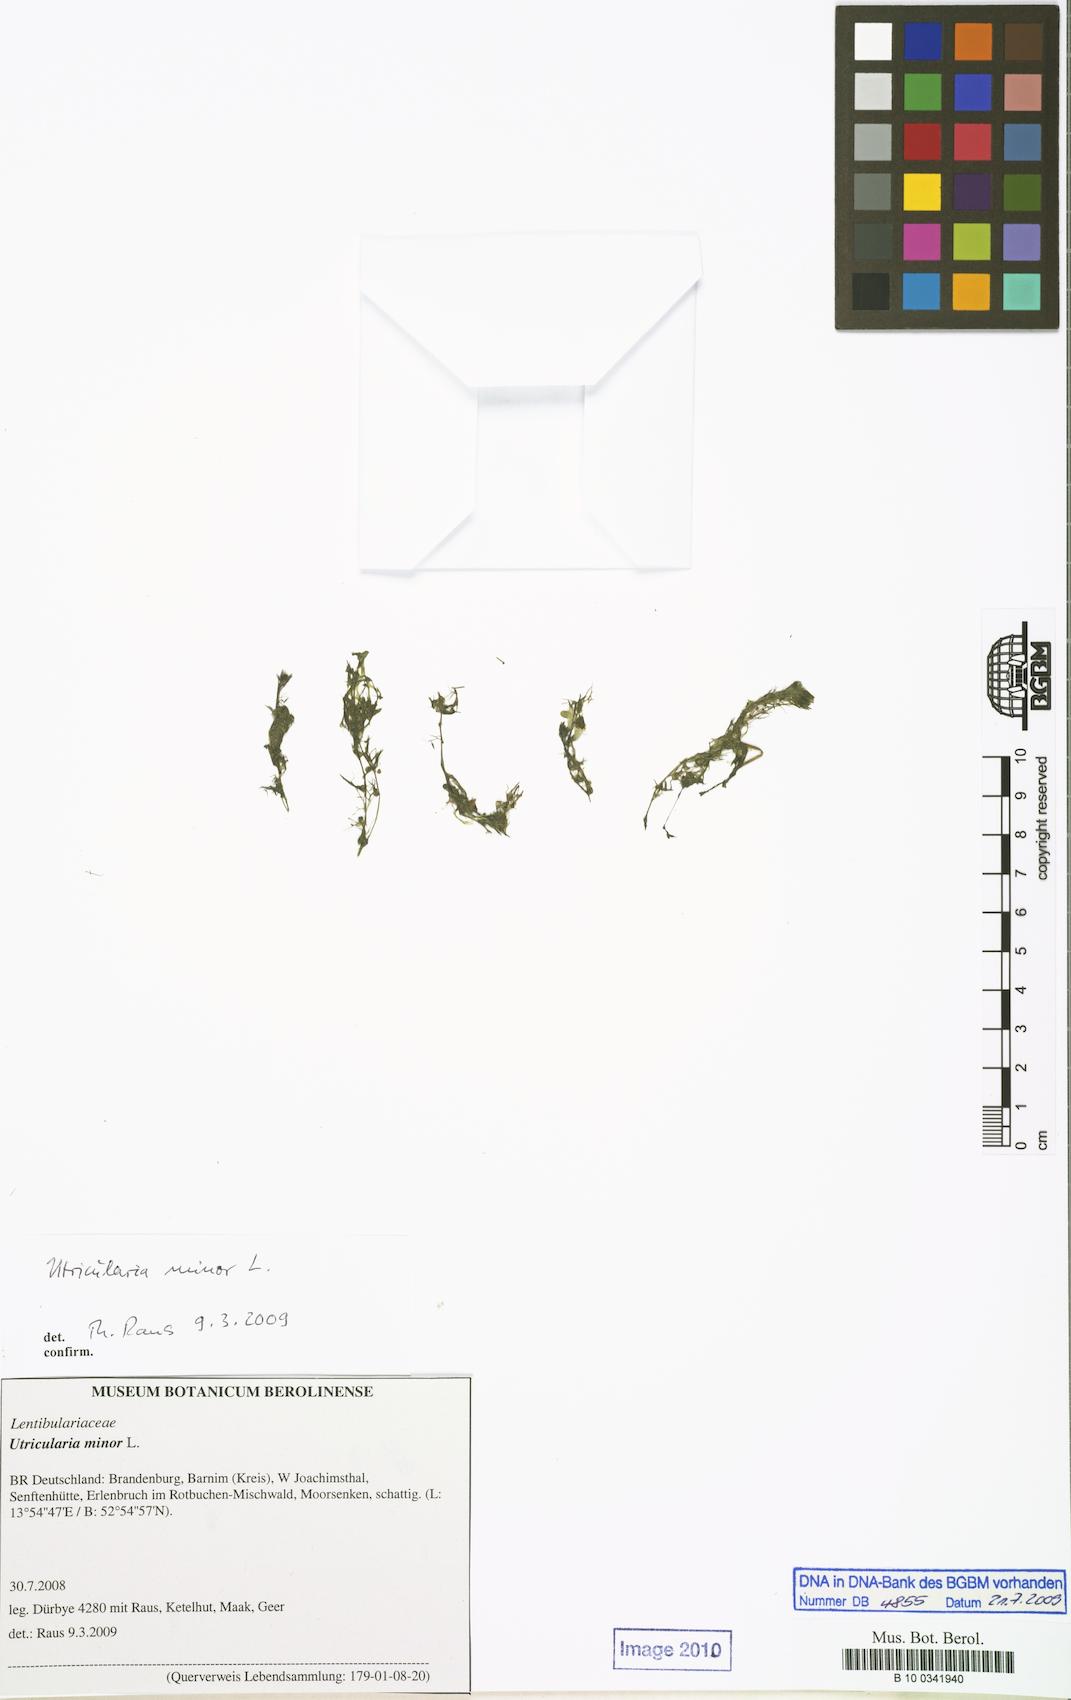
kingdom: Plantae
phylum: Tracheophyta
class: Magnoliopsida
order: Lamiales
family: Lentibulariaceae
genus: Utricularia
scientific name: Utricularia minor
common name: Lesser bladderwort
